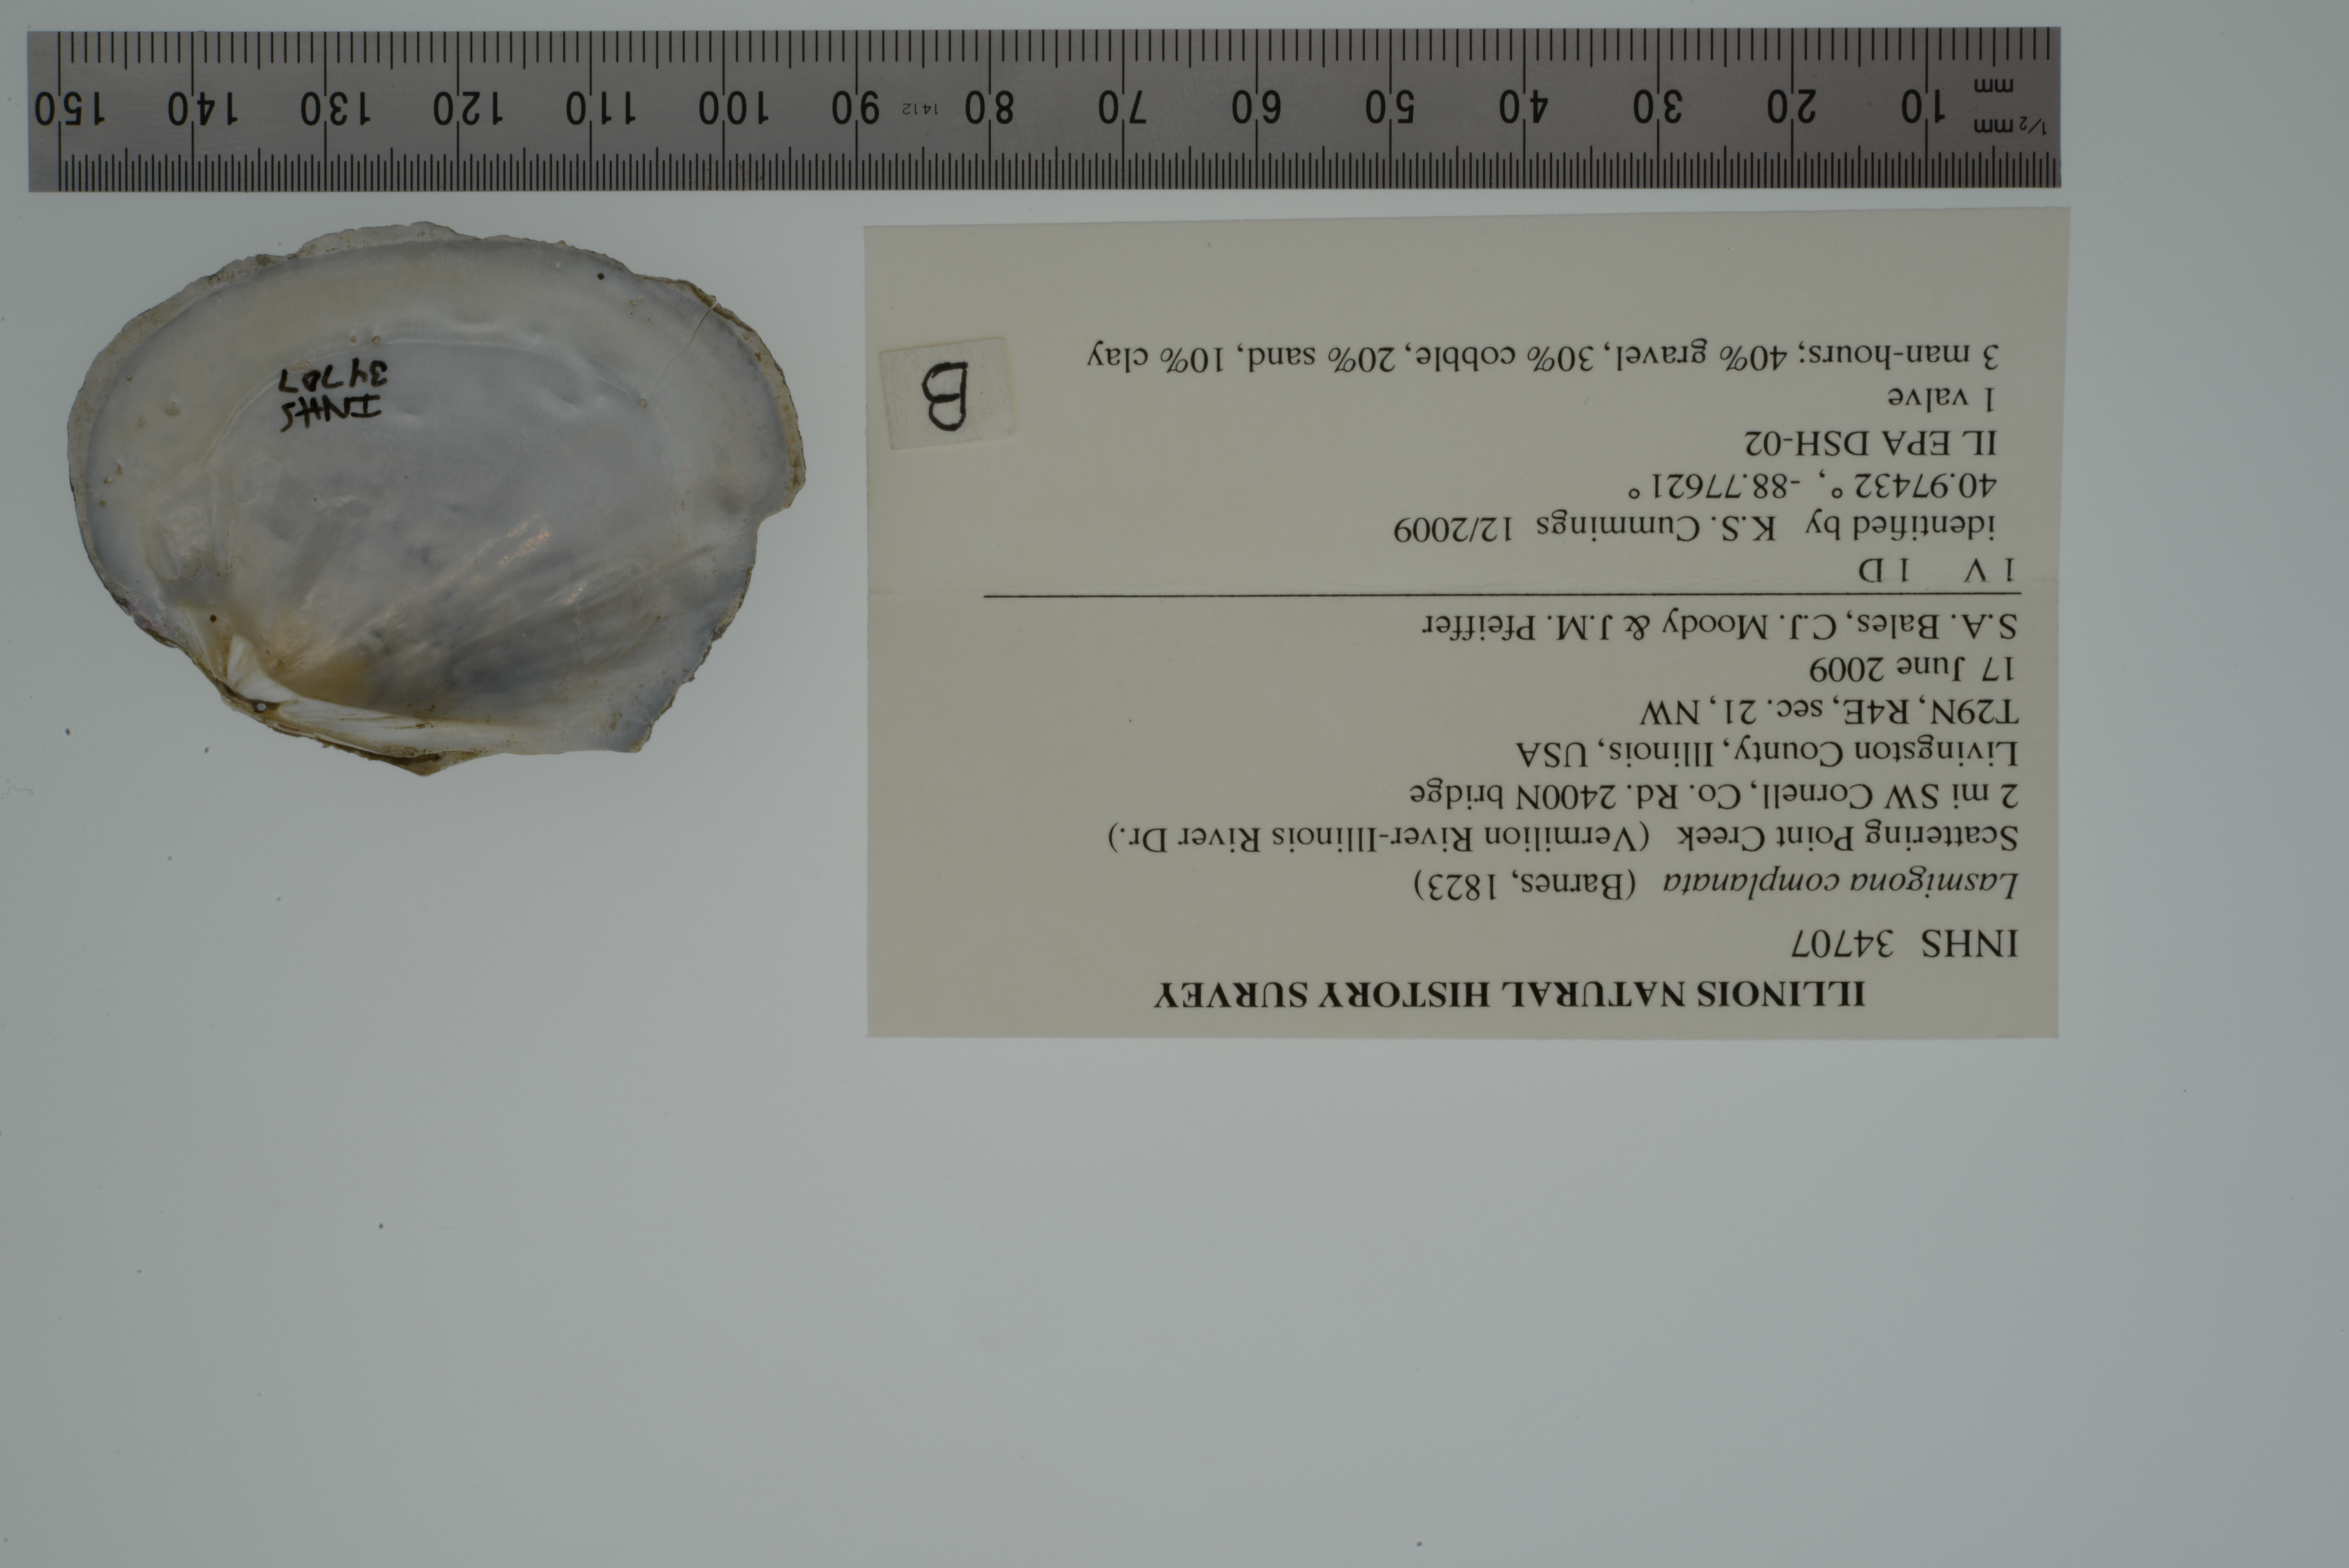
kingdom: Animalia
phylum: Mollusca
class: Bivalvia
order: Unionida
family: Unionidae
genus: Lasmigona
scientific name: Lasmigona complanata
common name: White heelsplitter
